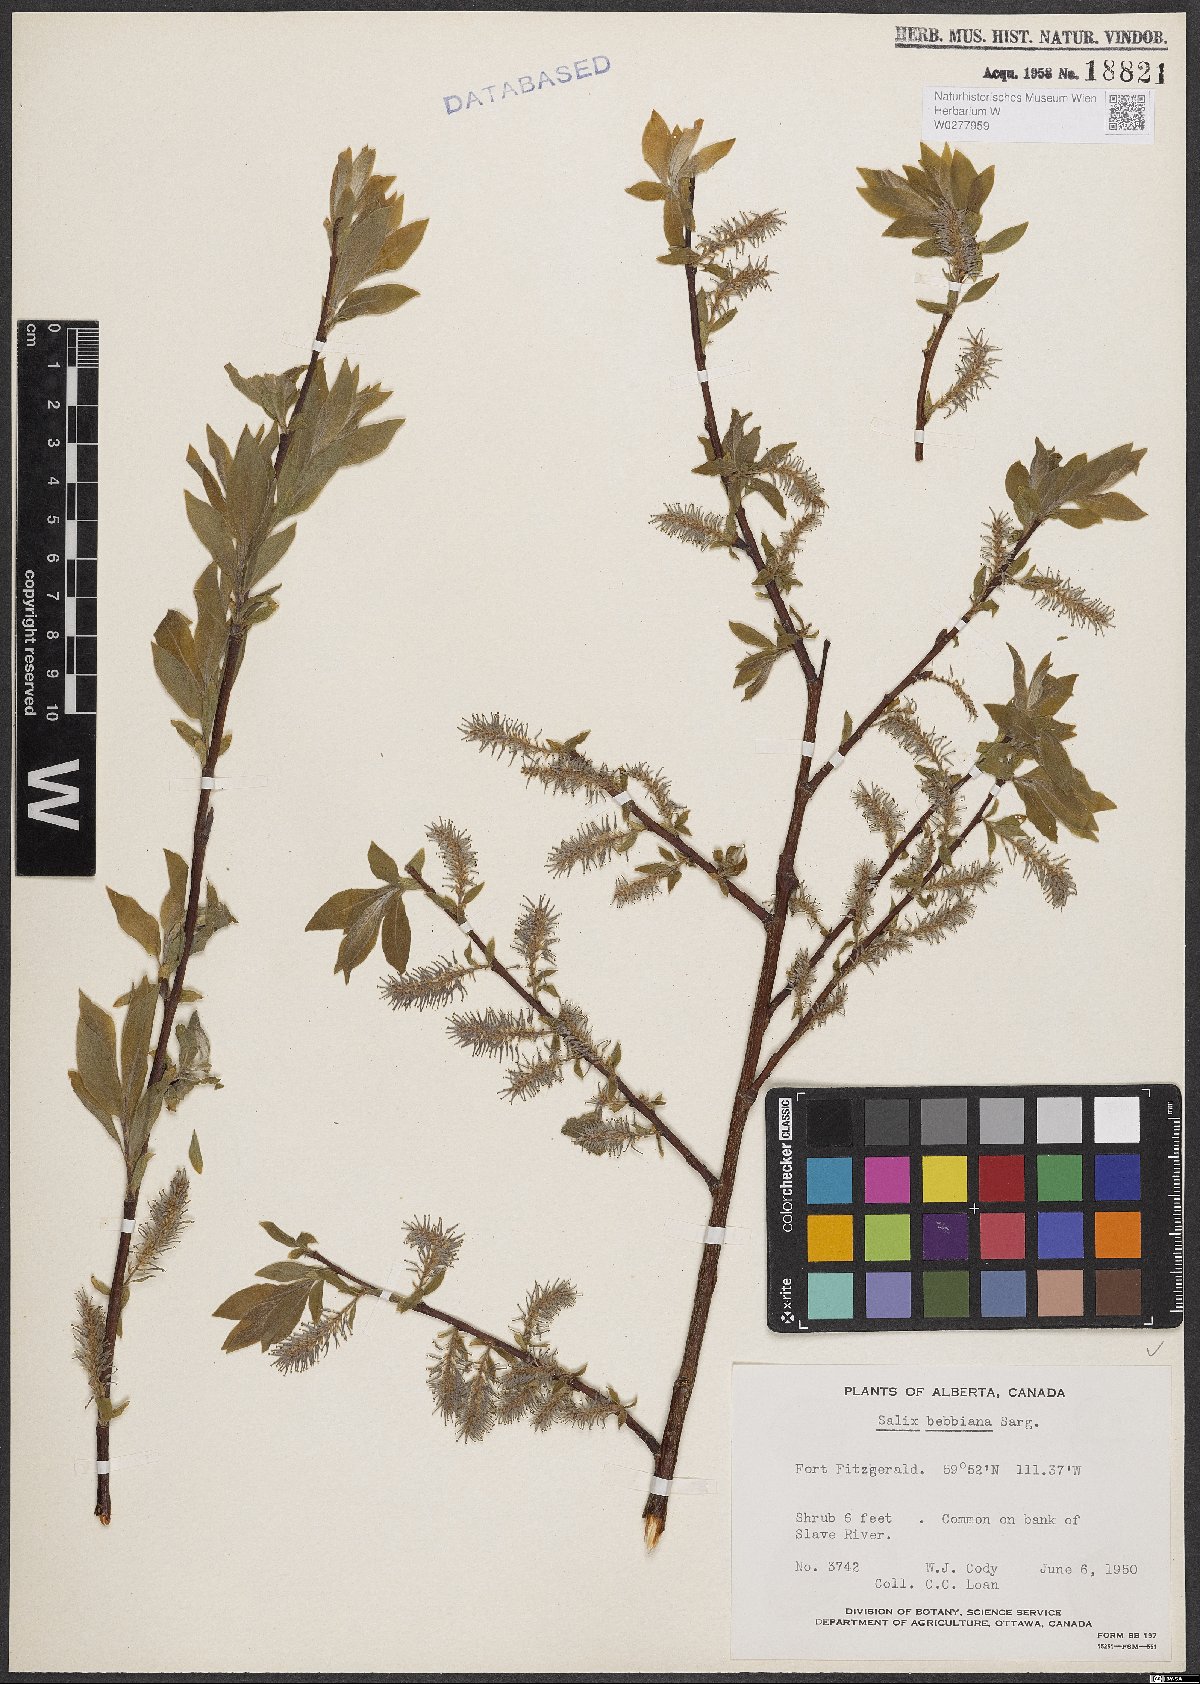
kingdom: Plantae
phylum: Tracheophyta
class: Magnoliopsida
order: Malpighiales
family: Salicaceae
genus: Salix
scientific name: Salix bebbiana
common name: Bebb's willow
